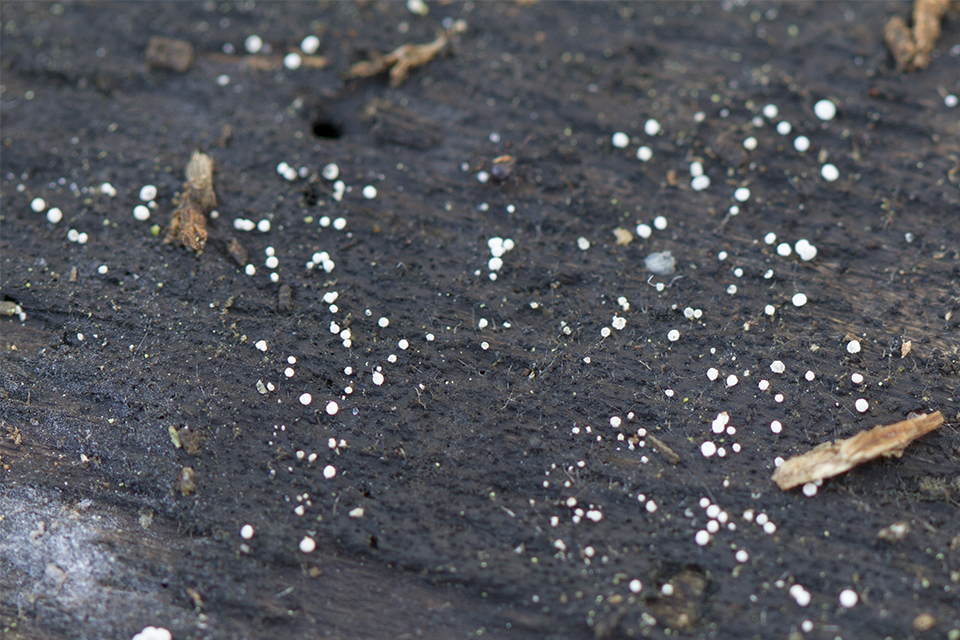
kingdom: Fungi
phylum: Ascomycota
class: Leotiomycetes
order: Helotiales
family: Hyaloscyphaceae
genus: Polydesmia
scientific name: Polydesmia pruinosa
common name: dunskive
